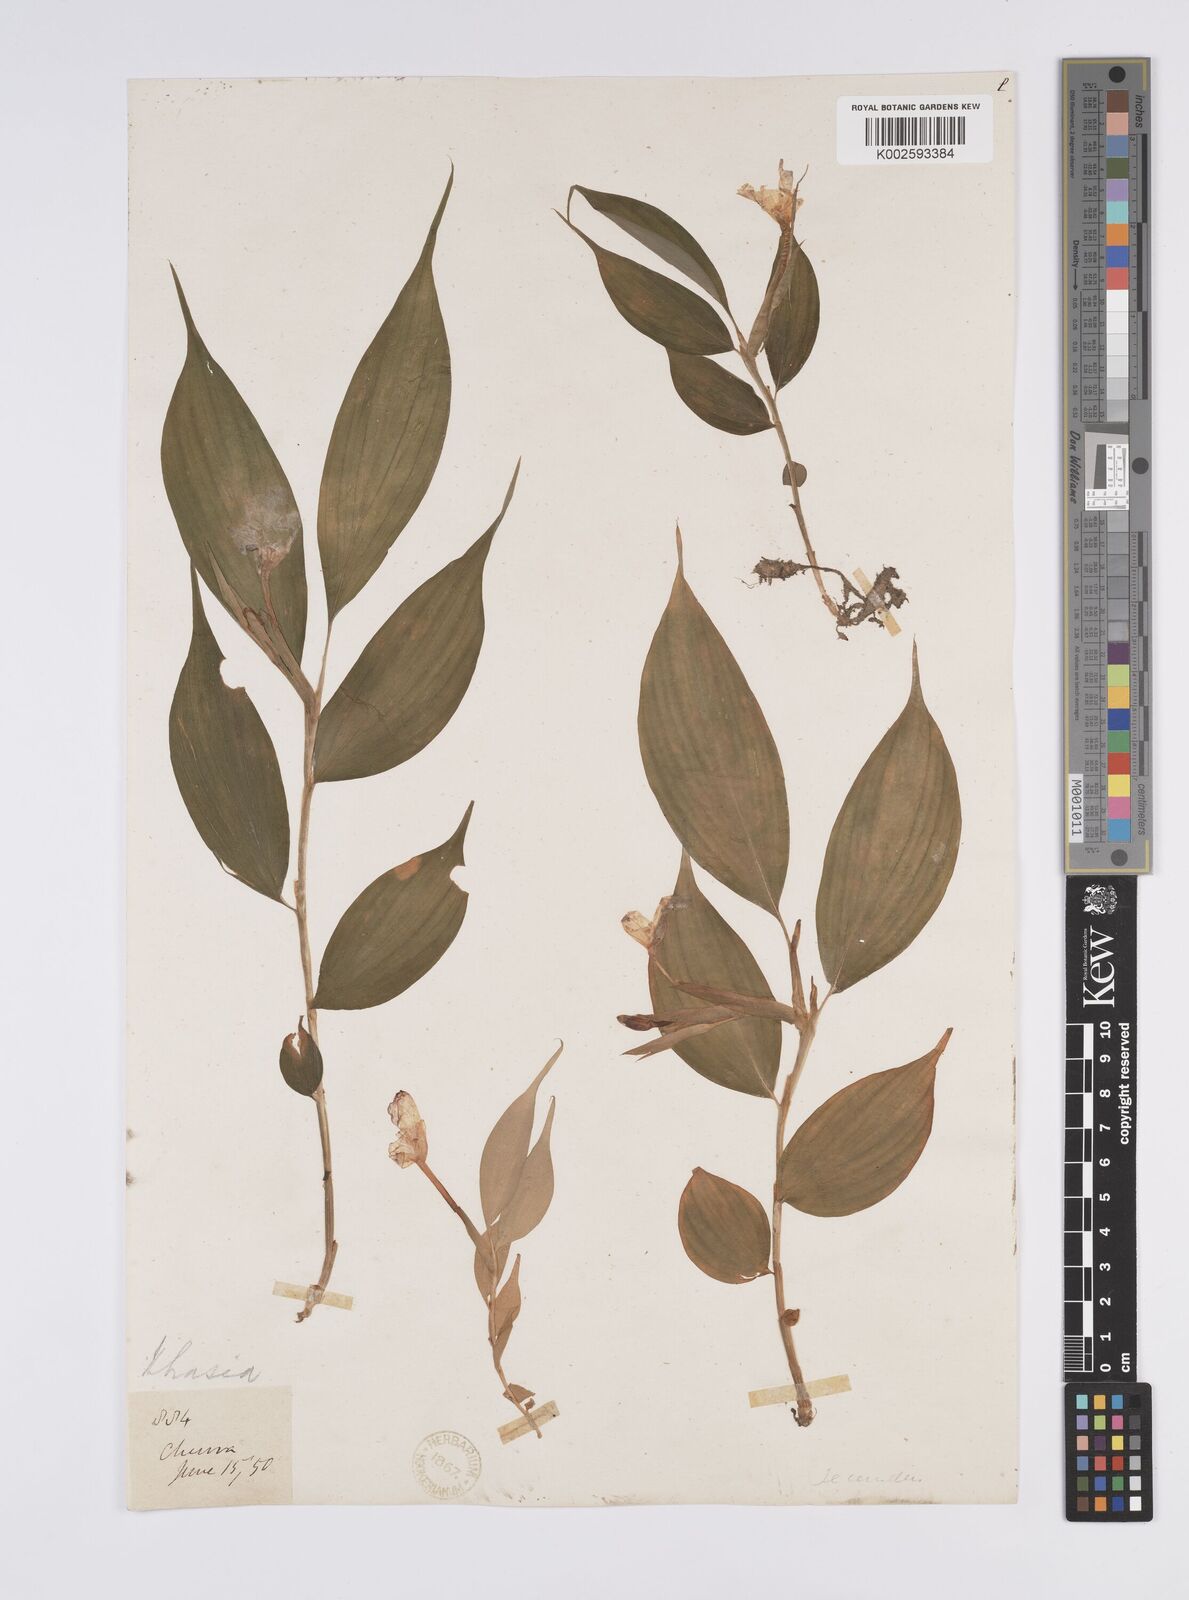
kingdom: Plantae
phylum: Tracheophyta
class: Liliopsida
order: Zingiberales
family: Zingiberaceae
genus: Caulokaempferia
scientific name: Caulokaempferia secunda
